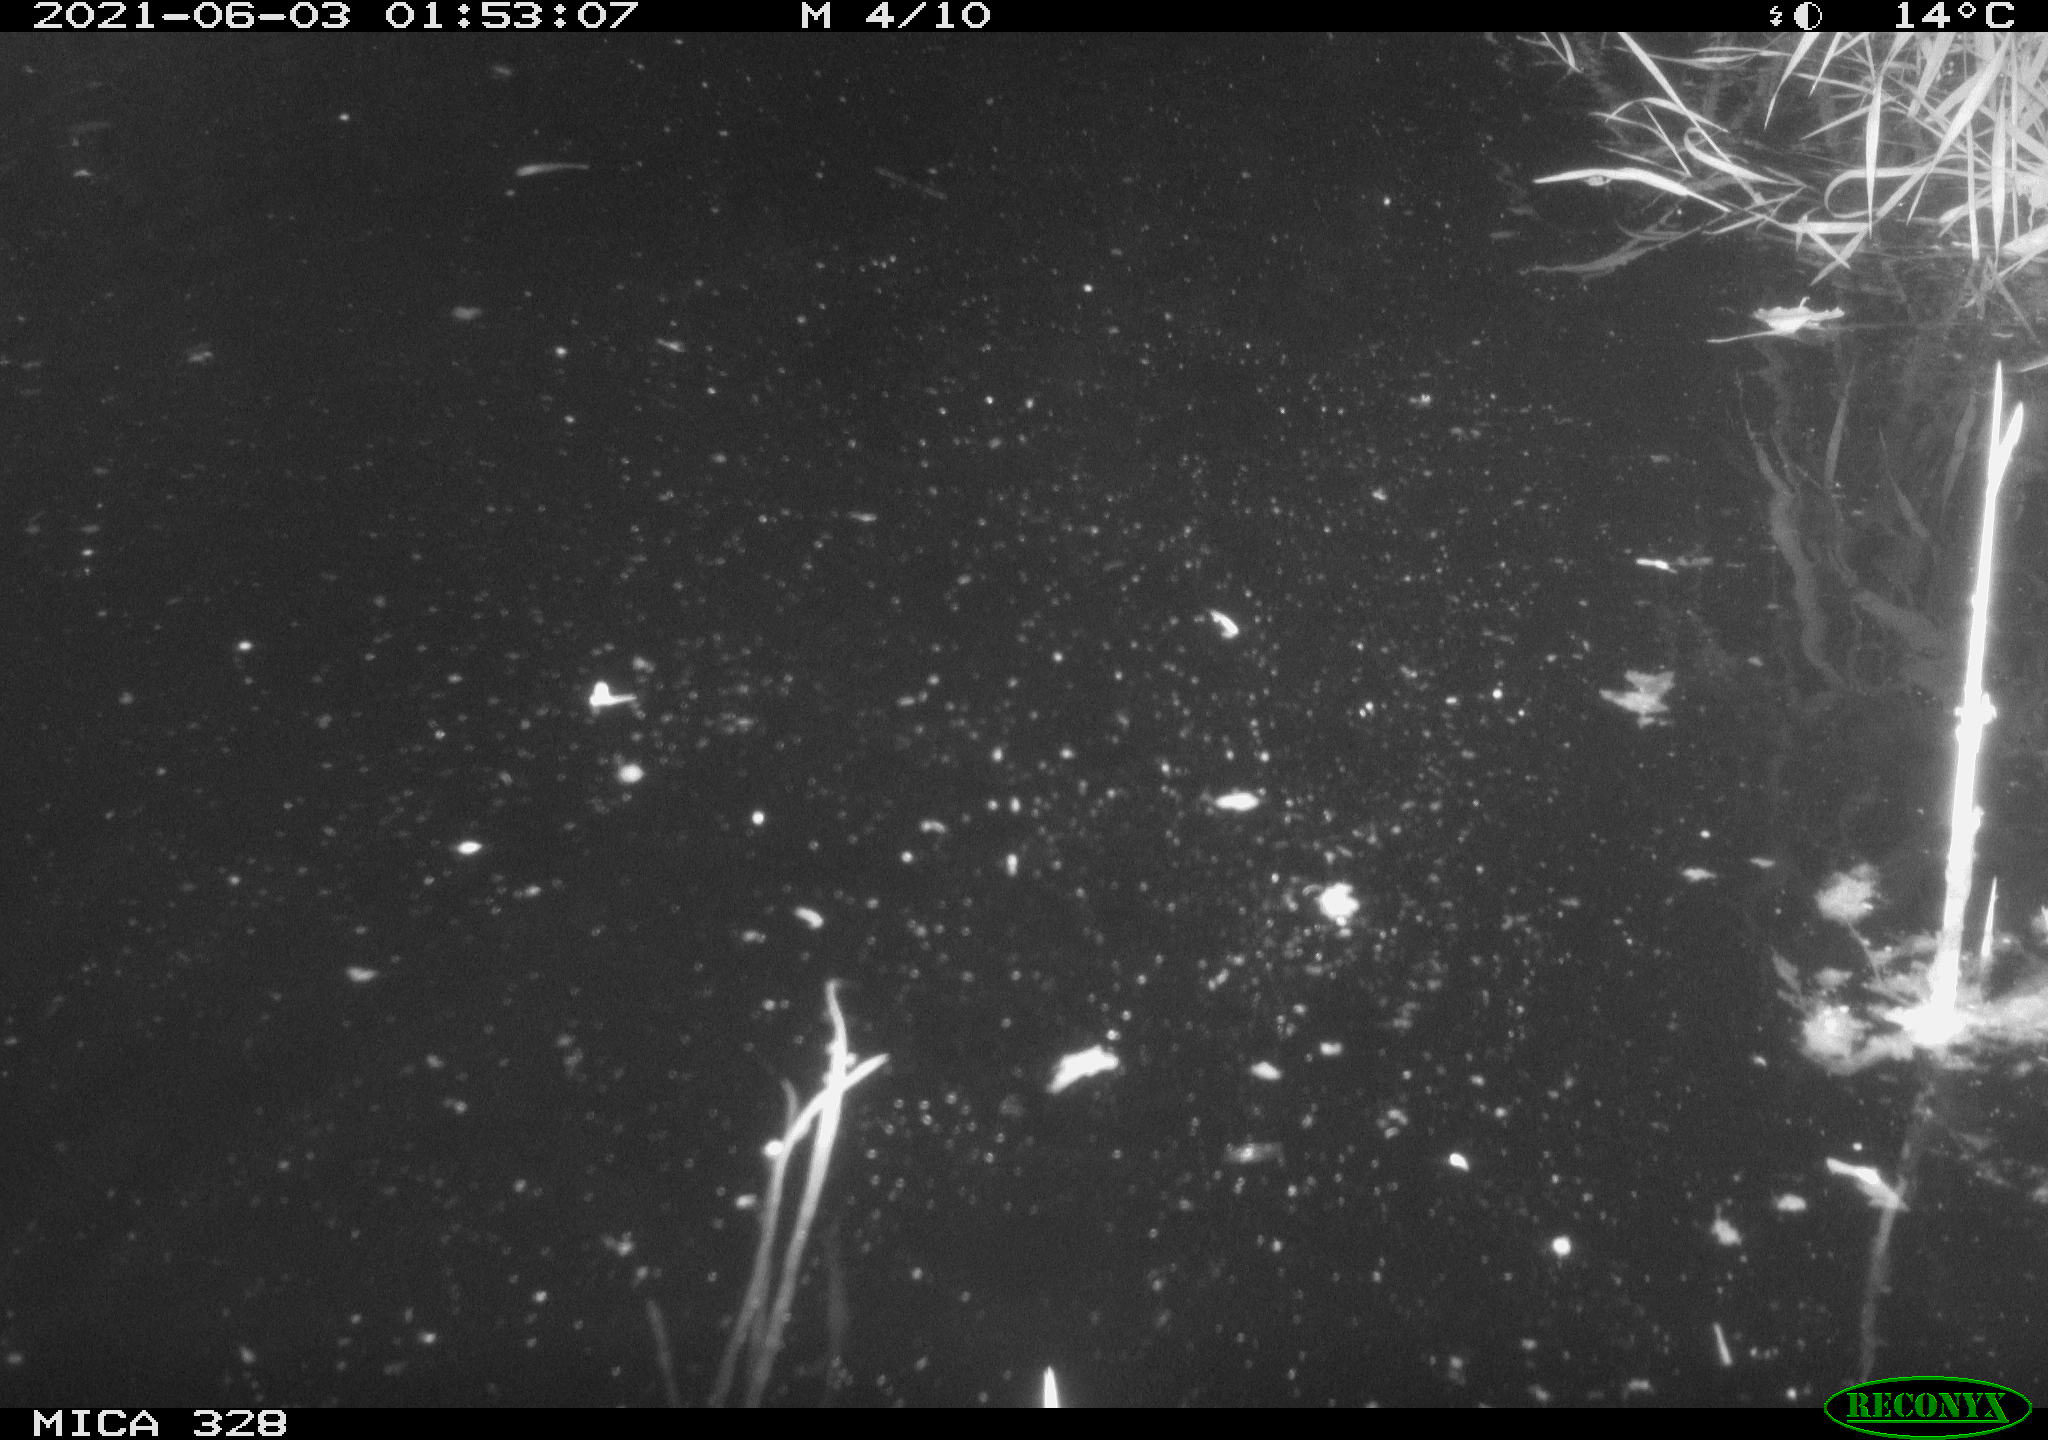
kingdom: Animalia
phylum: Chordata
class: Mammalia
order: Rodentia
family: Cricetidae
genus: Ondatra
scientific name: Ondatra zibethicus
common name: Muskrat
